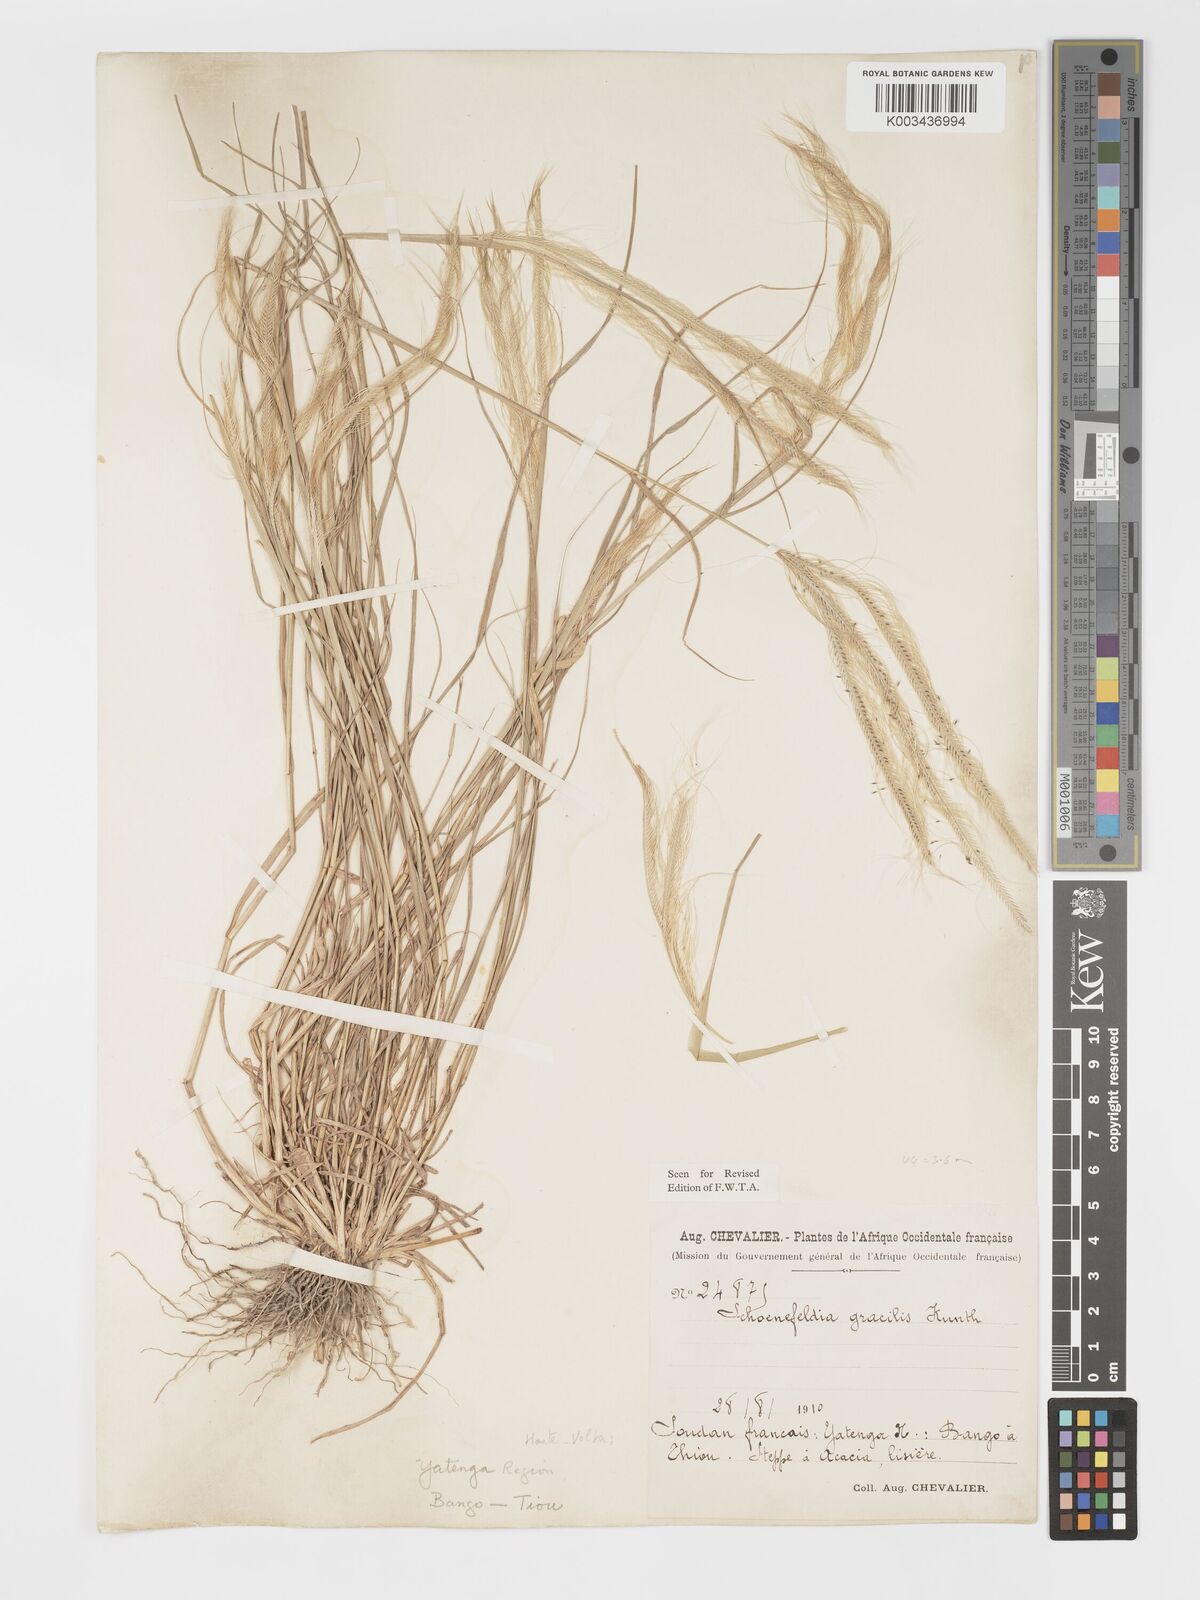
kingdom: Plantae
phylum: Tracheophyta
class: Liliopsida
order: Poales
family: Poaceae
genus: Schoenefeldia
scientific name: Schoenefeldia gracilis
